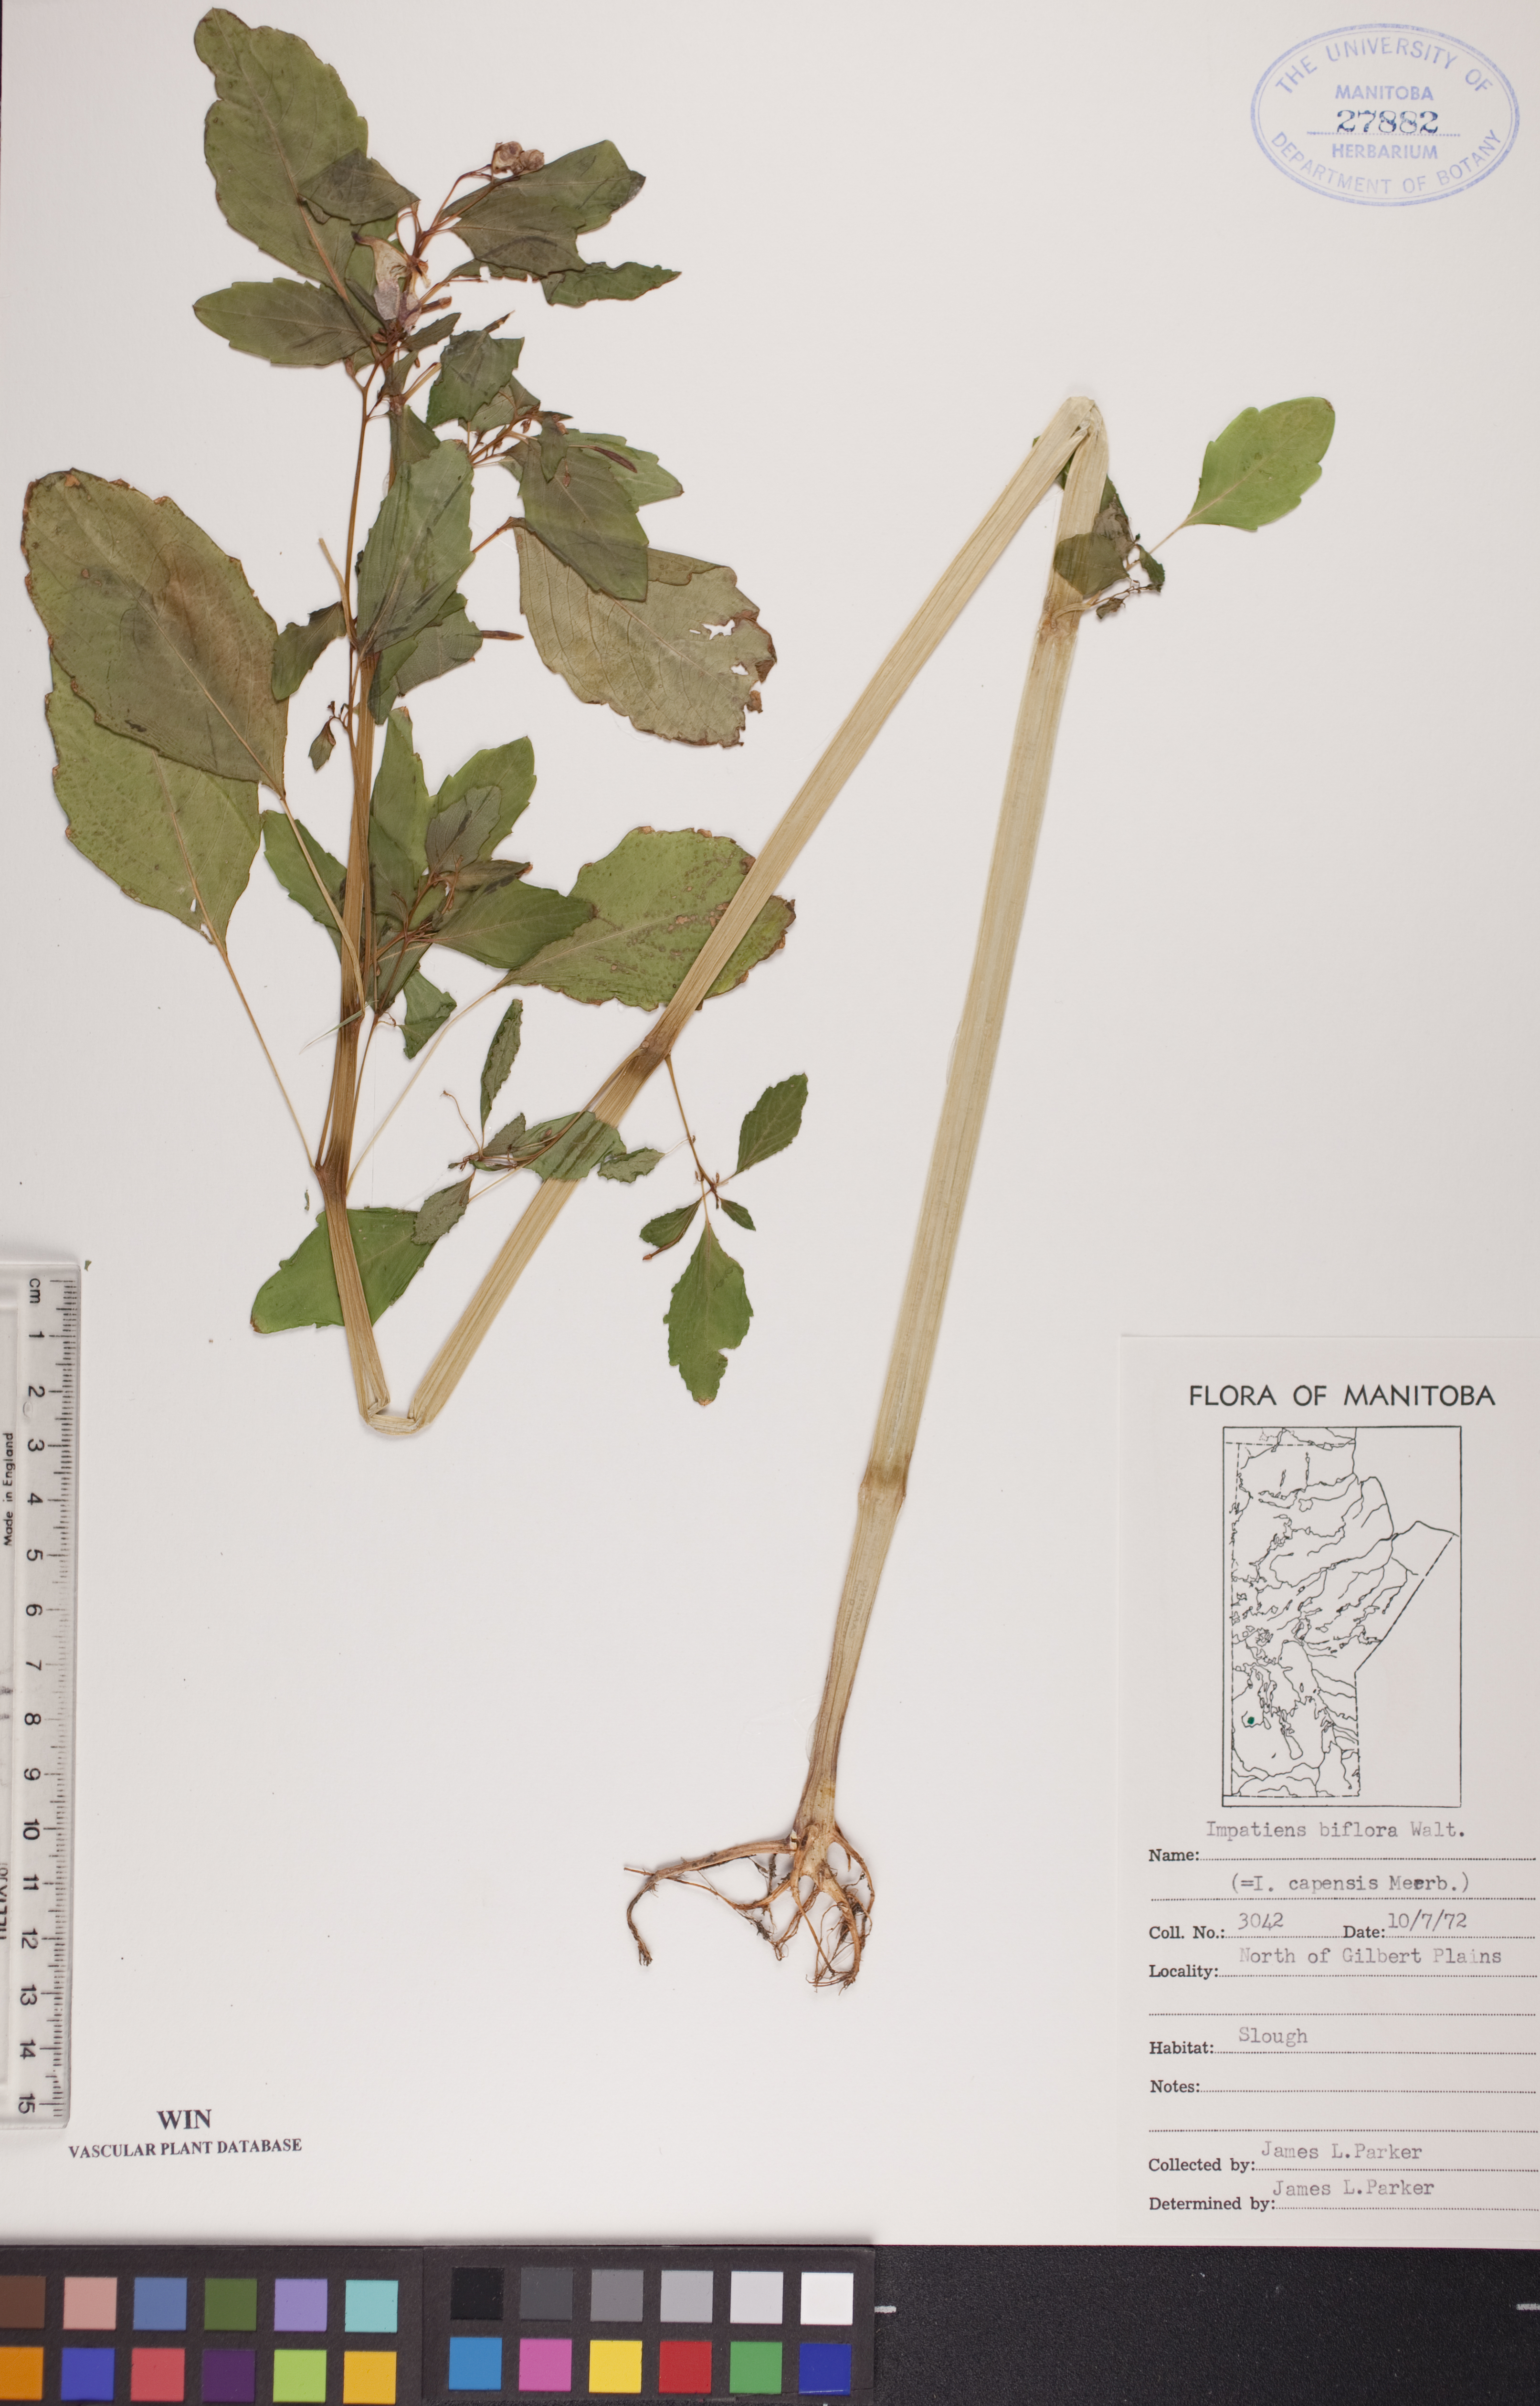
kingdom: Plantae
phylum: Tracheophyta
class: Magnoliopsida
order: Ericales
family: Balsaminaceae
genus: Impatiens
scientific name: Impatiens capensis
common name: Orange balsam
